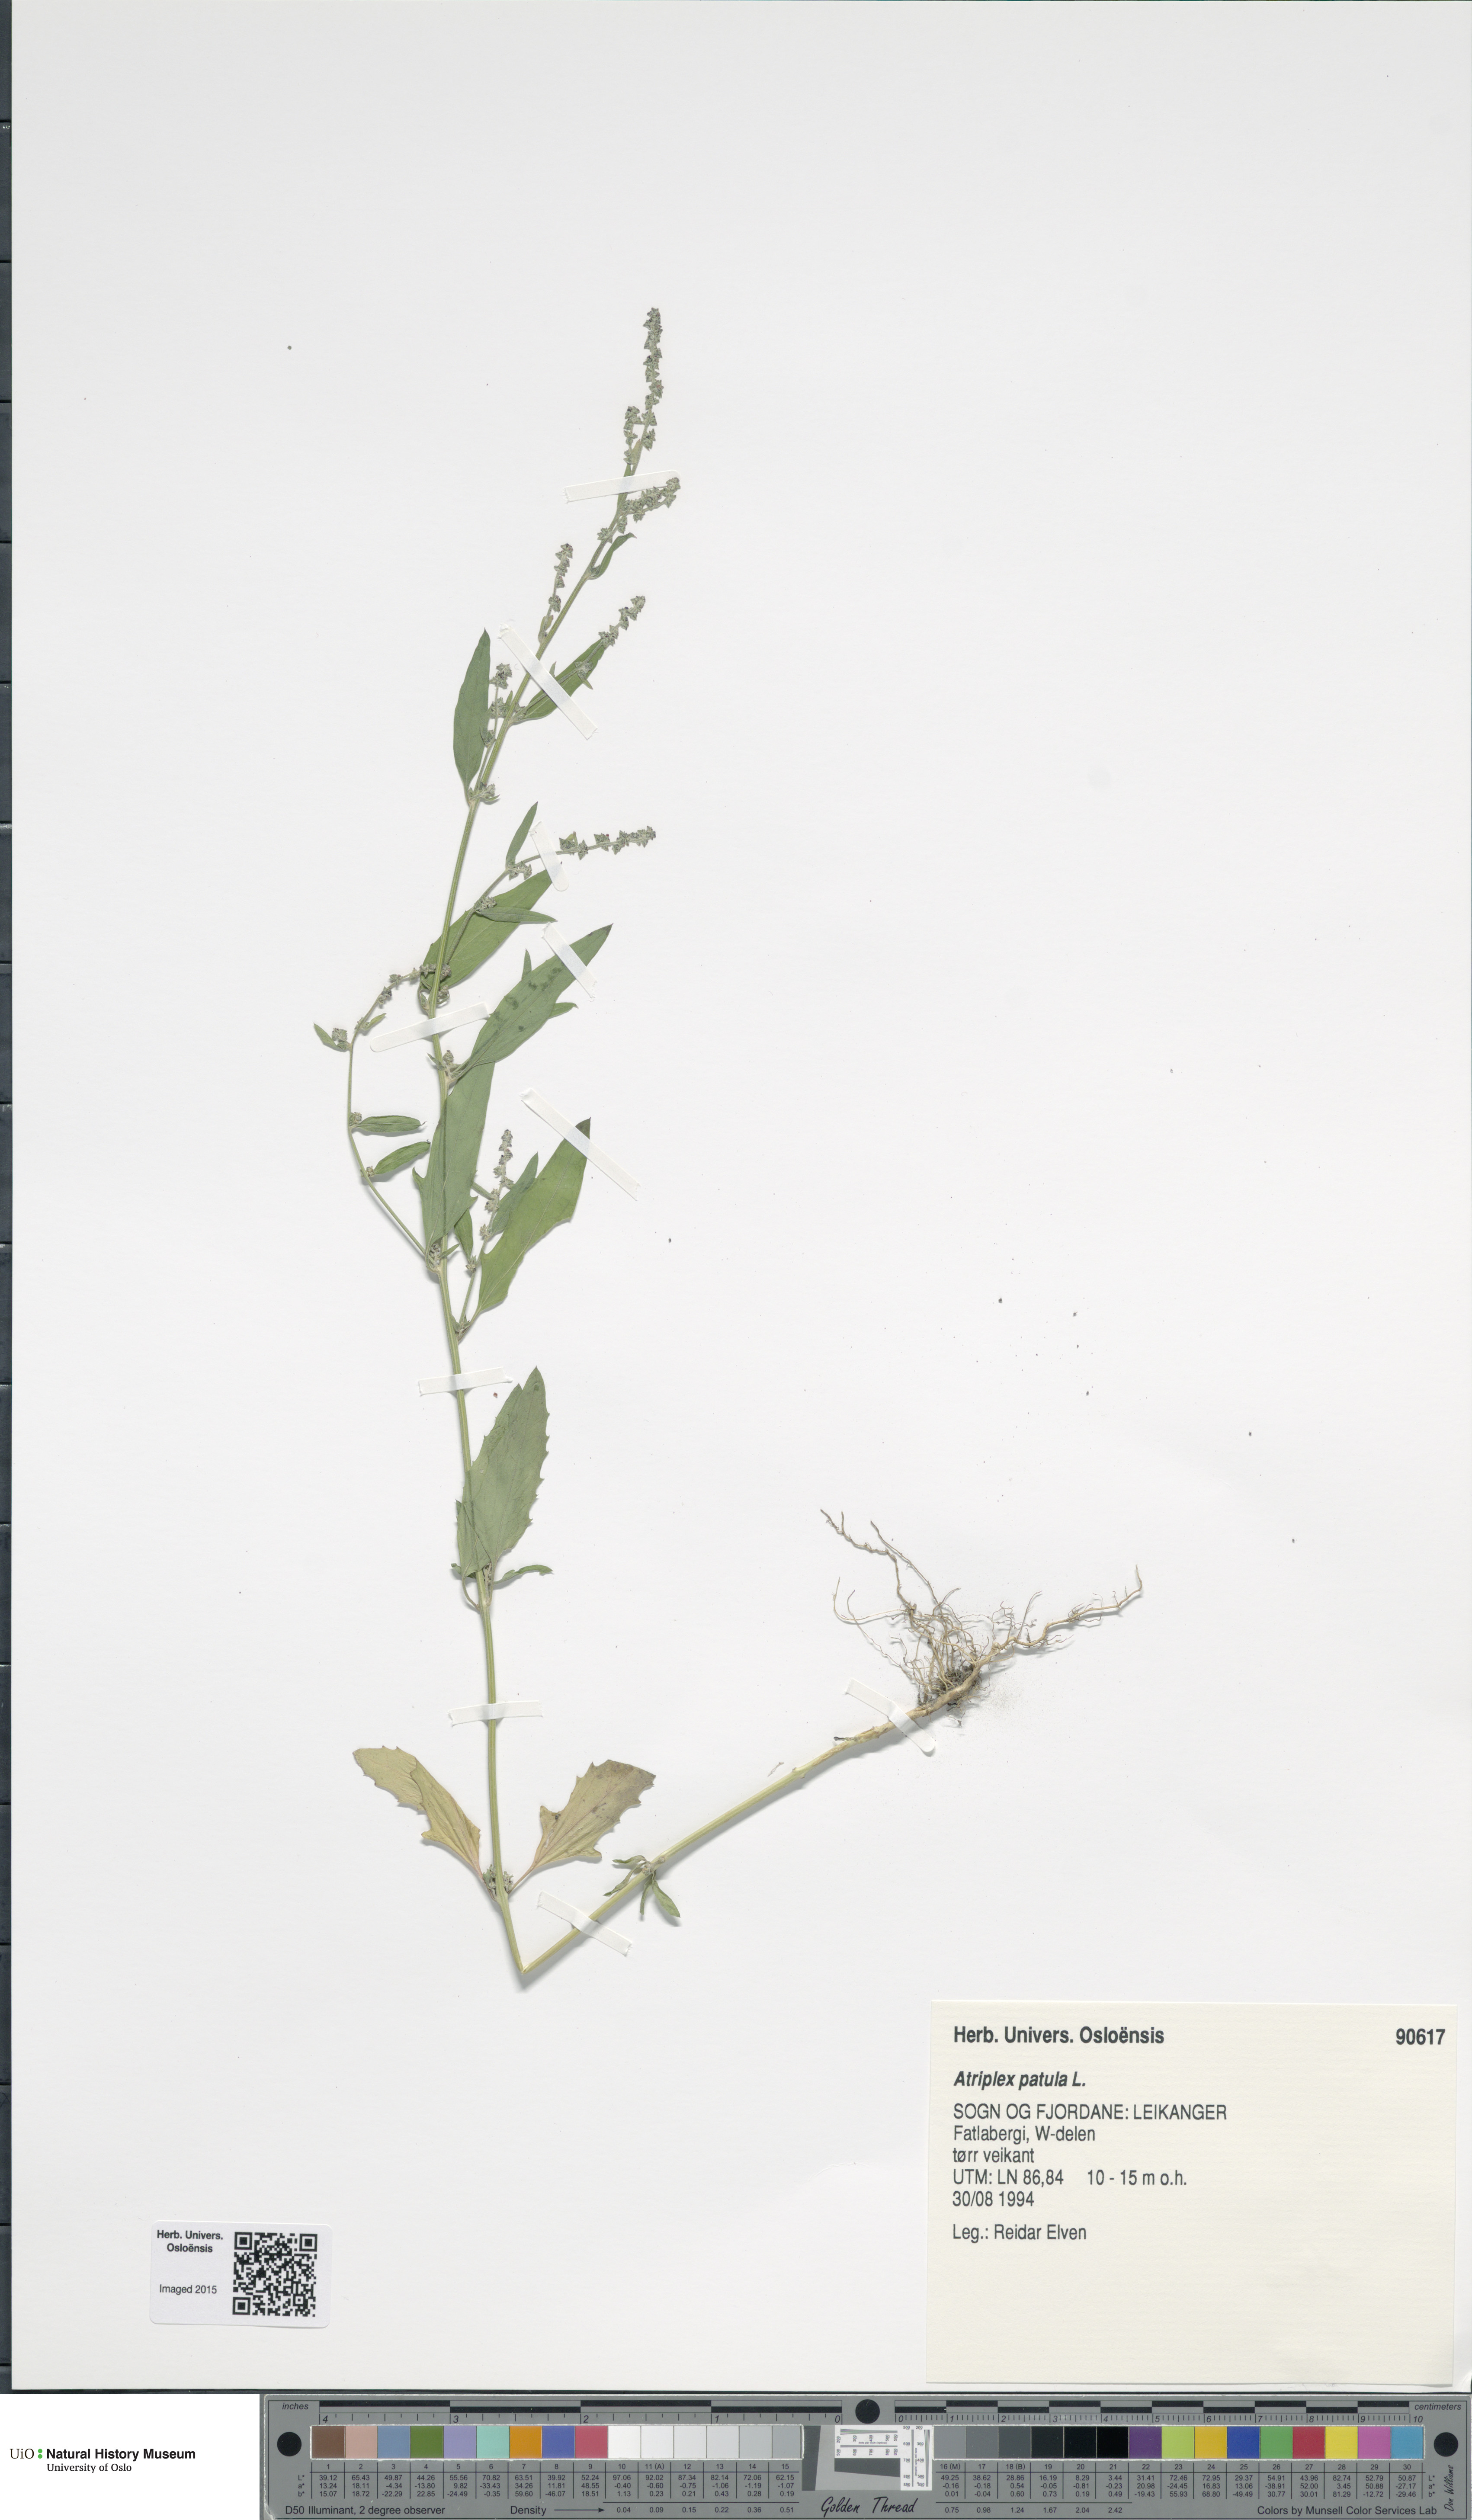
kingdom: Plantae
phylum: Tracheophyta
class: Magnoliopsida
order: Caryophyllales
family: Amaranthaceae
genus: Atriplex
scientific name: Atriplex patula
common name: Common orache
